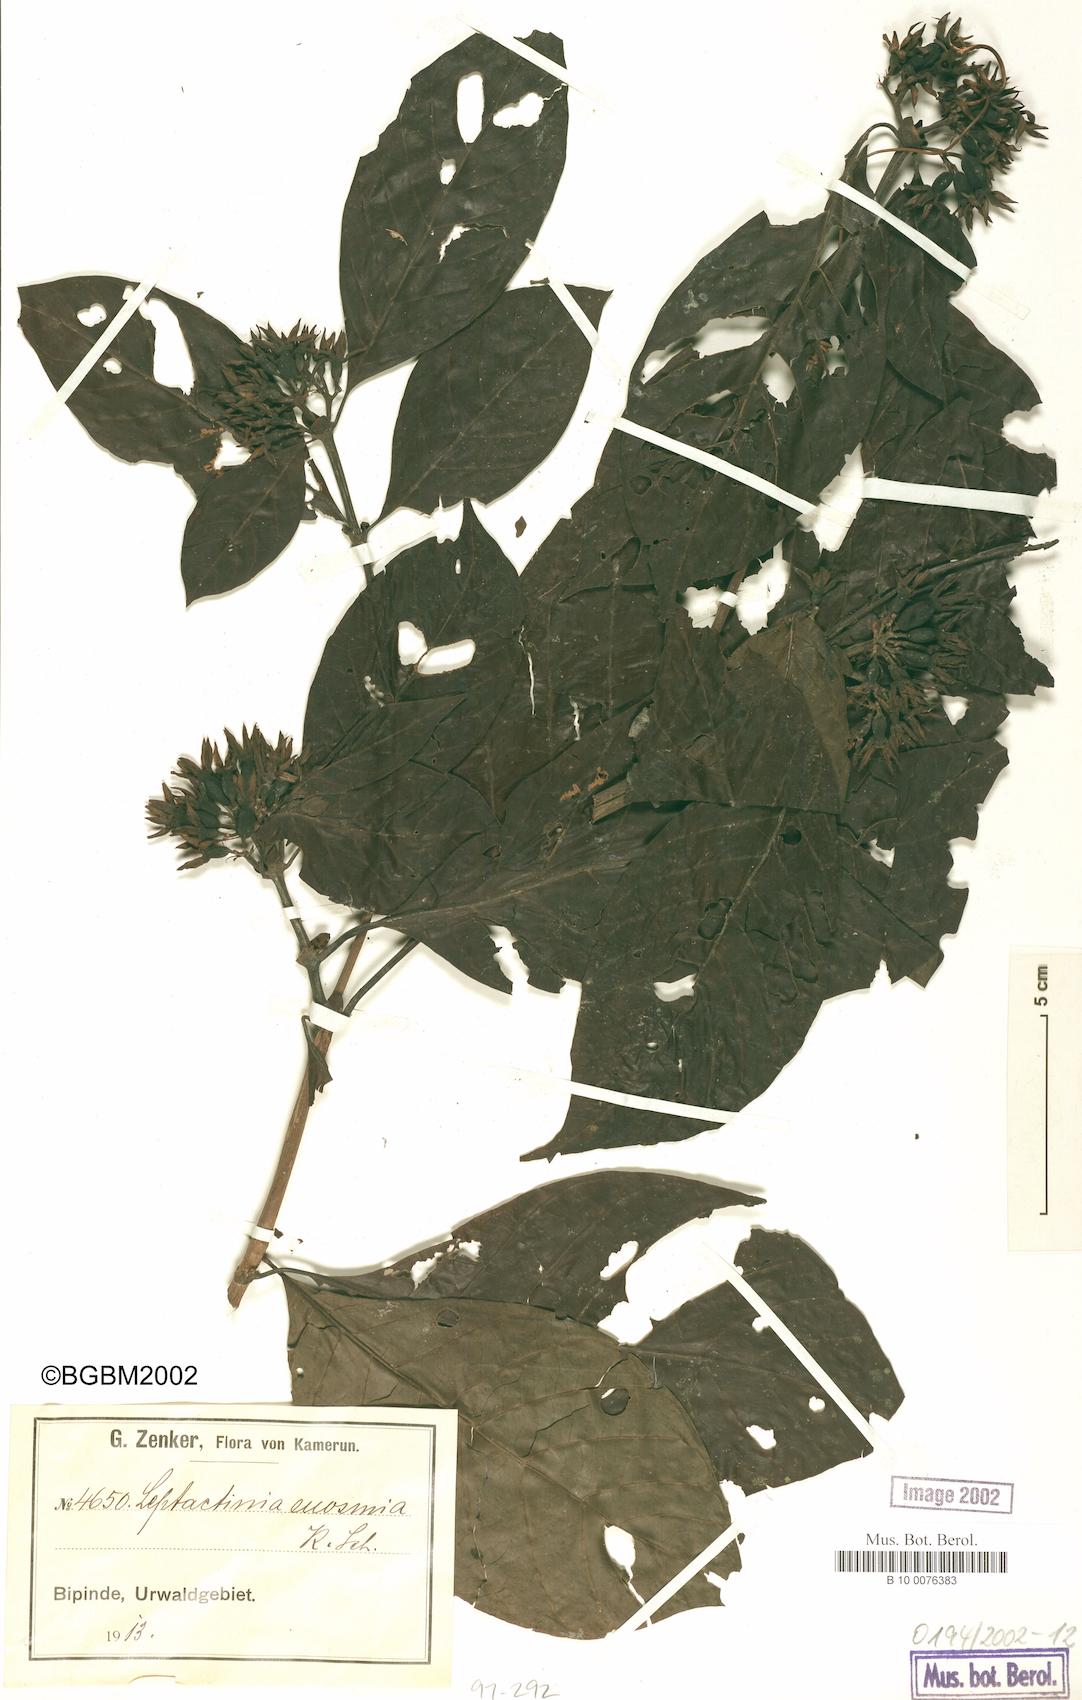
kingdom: Plantae
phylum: Tracheophyta
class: Magnoliopsida
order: Gentianales
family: Rubiaceae
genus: Leptactina
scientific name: Leptactina involucrata
